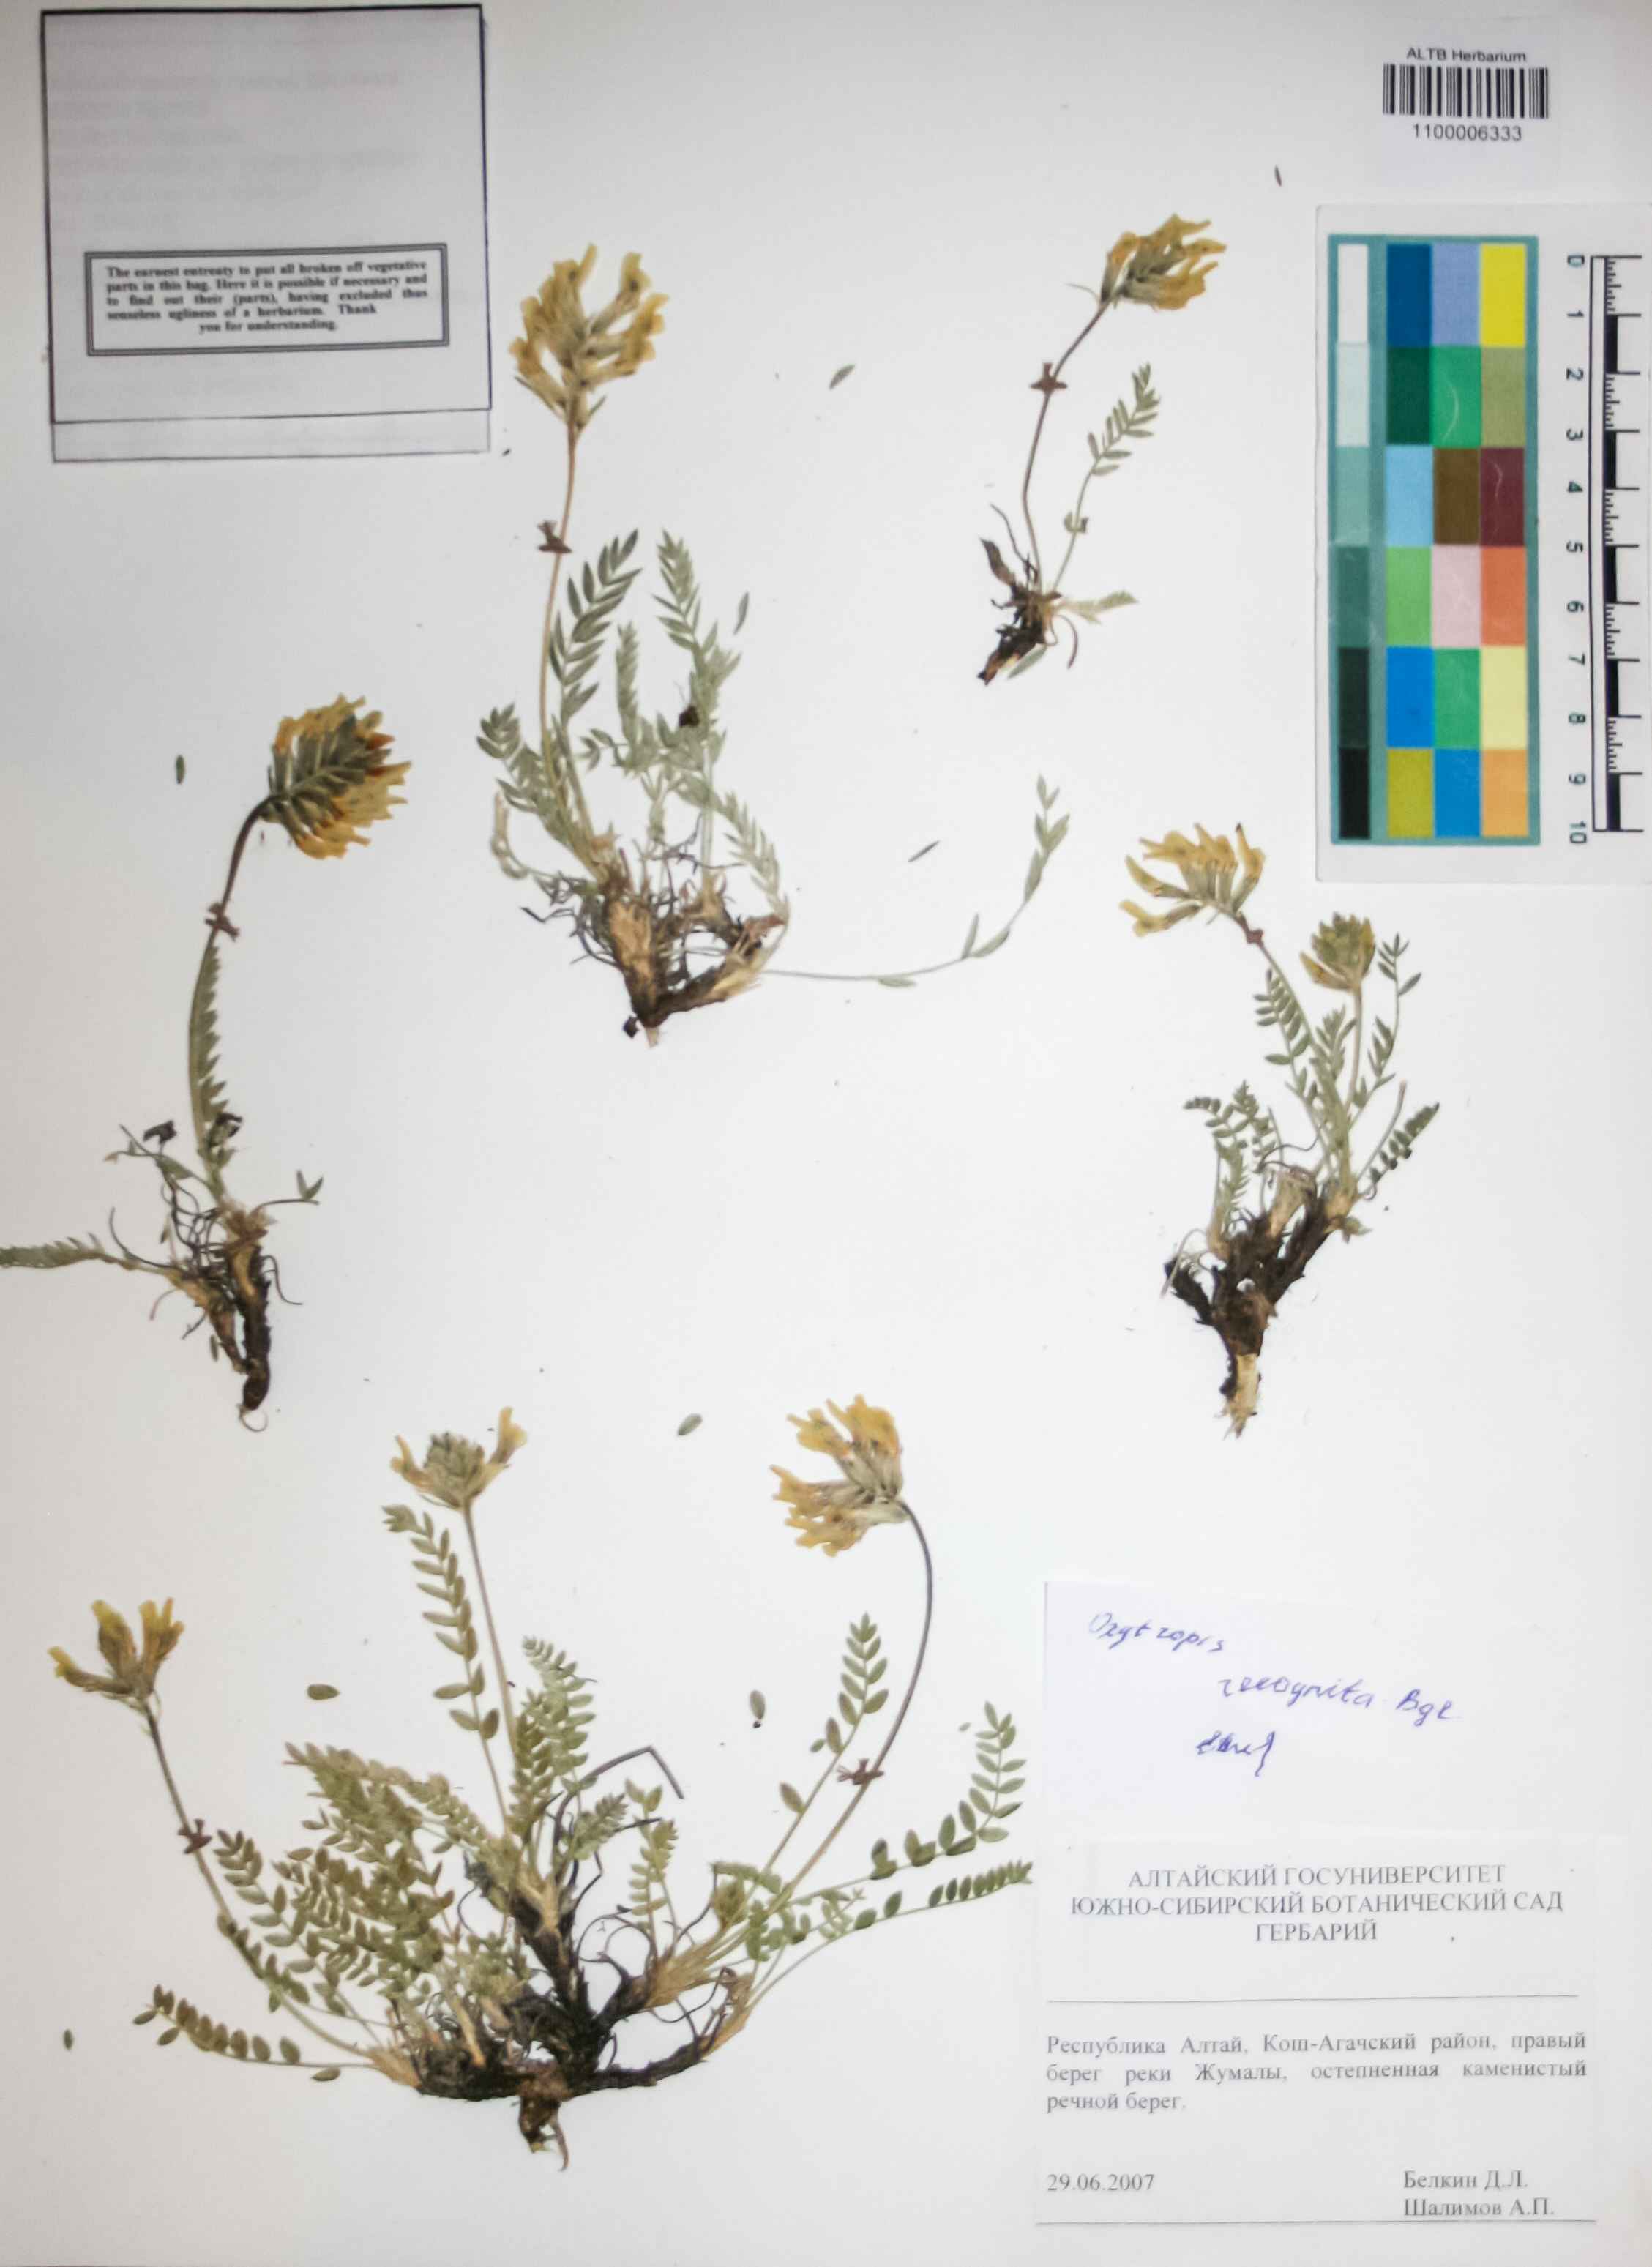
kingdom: Plantae
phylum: Tracheophyta
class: Magnoliopsida
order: Fabales
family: Fabaceae
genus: Oxytropis
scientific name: Oxytropis recognita
